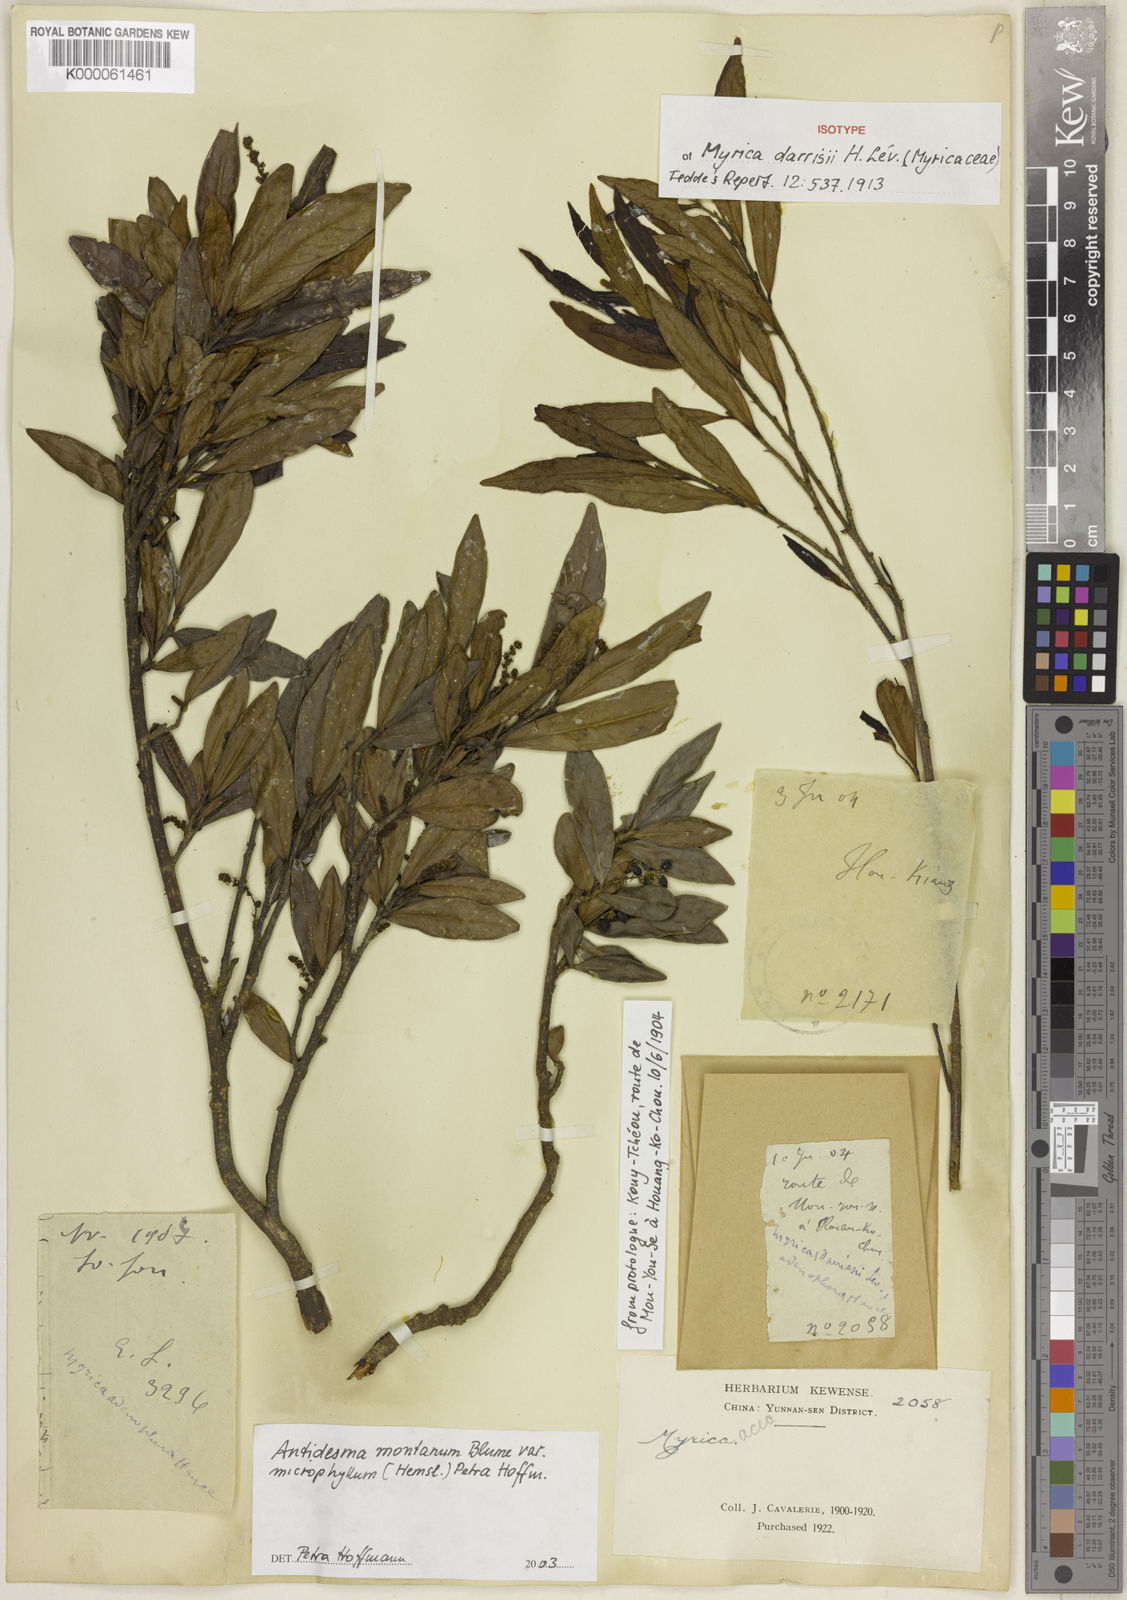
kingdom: Plantae
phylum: Tracheophyta
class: Magnoliopsida
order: Malpighiales
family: Phyllanthaceae
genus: Antidesma
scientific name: Antidesma montanum
